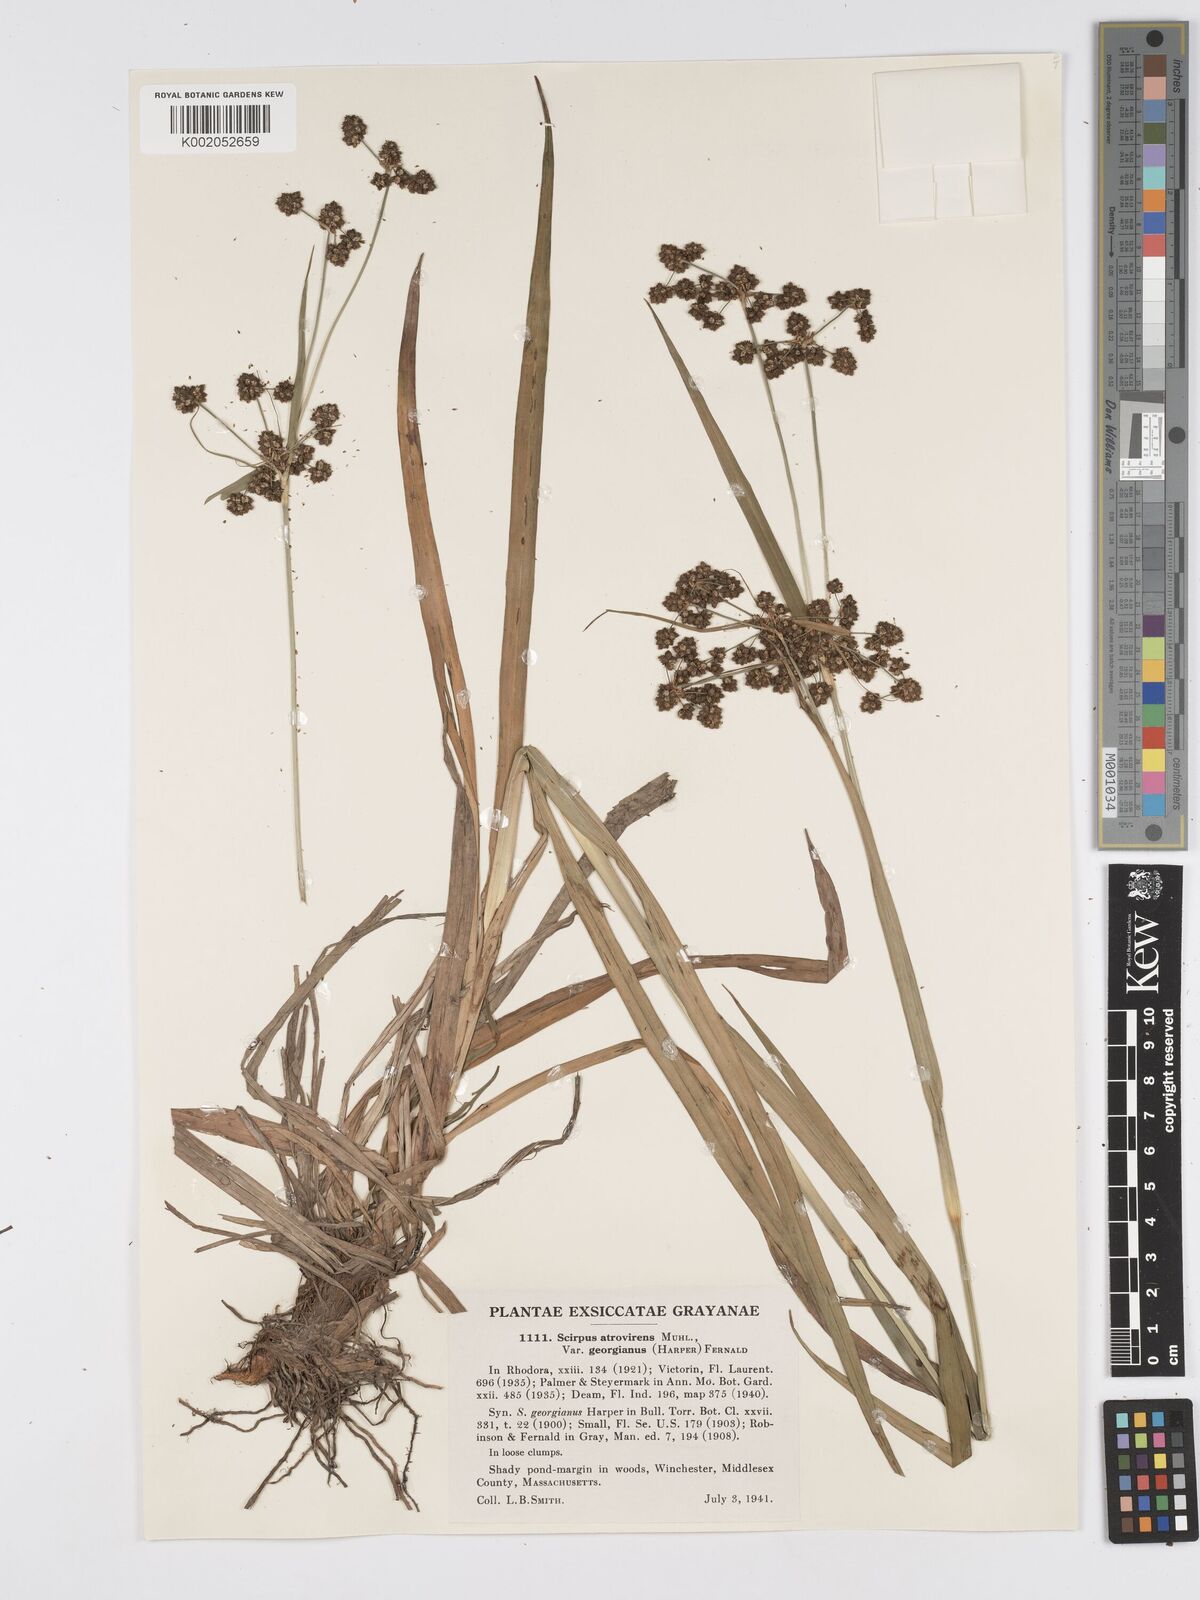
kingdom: Plantae
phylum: Tracheophyta
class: Liliopsida
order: Poales
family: Cyperaceae
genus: Scirpus
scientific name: Scirpus atrovirens
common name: Black bulrush
